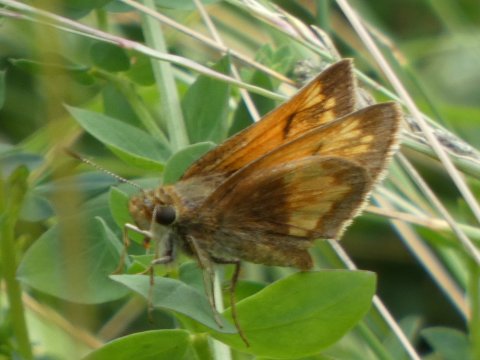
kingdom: Animalia
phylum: Arthropoda
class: Insecta
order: Lepidoptera
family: Hesperiidae
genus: Lon
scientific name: Lon hobomok
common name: Hobomok Skipper
